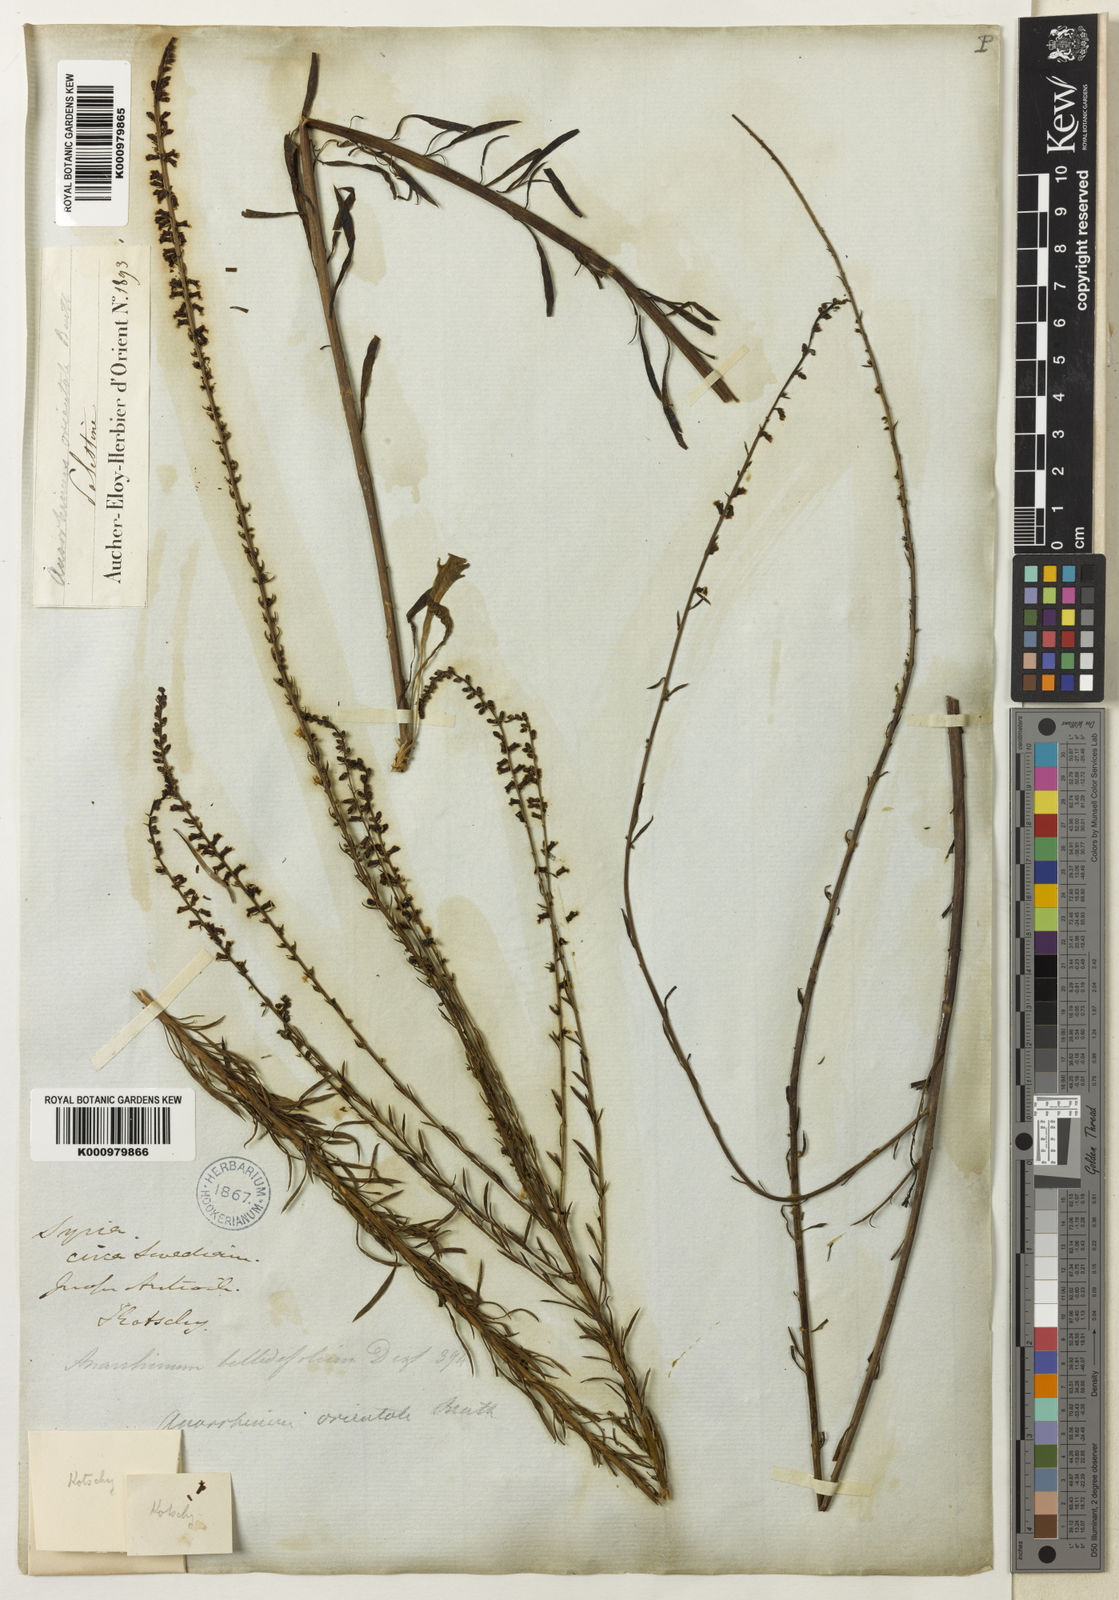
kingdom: Plantae
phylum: Tracheophyta
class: Magnoliopsida
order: Lamiales
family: Plantaginaceae
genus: Anarrhinum
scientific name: Anarrhinum forskaohlii
